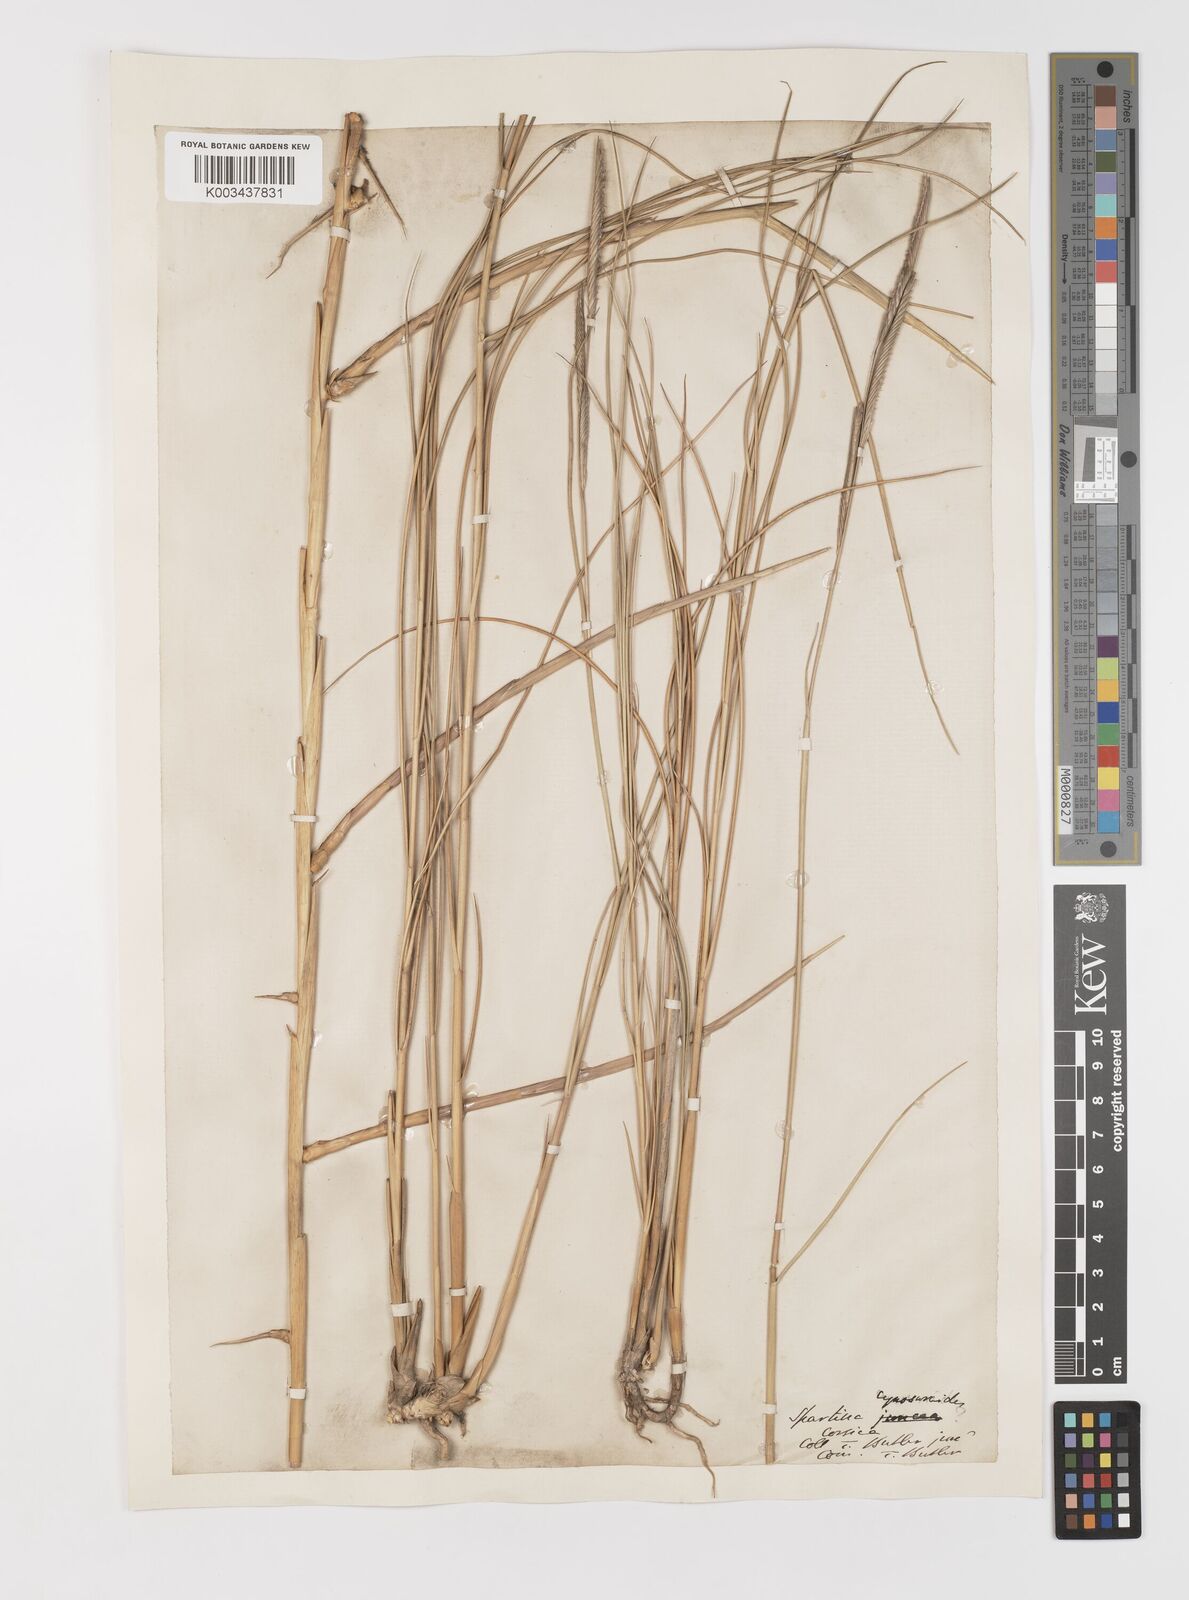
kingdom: Plantae
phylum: Tracheophyta
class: Liliopsida
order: Poales
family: Poaceae
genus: Sporobolus
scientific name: Sporobolus versicolor
